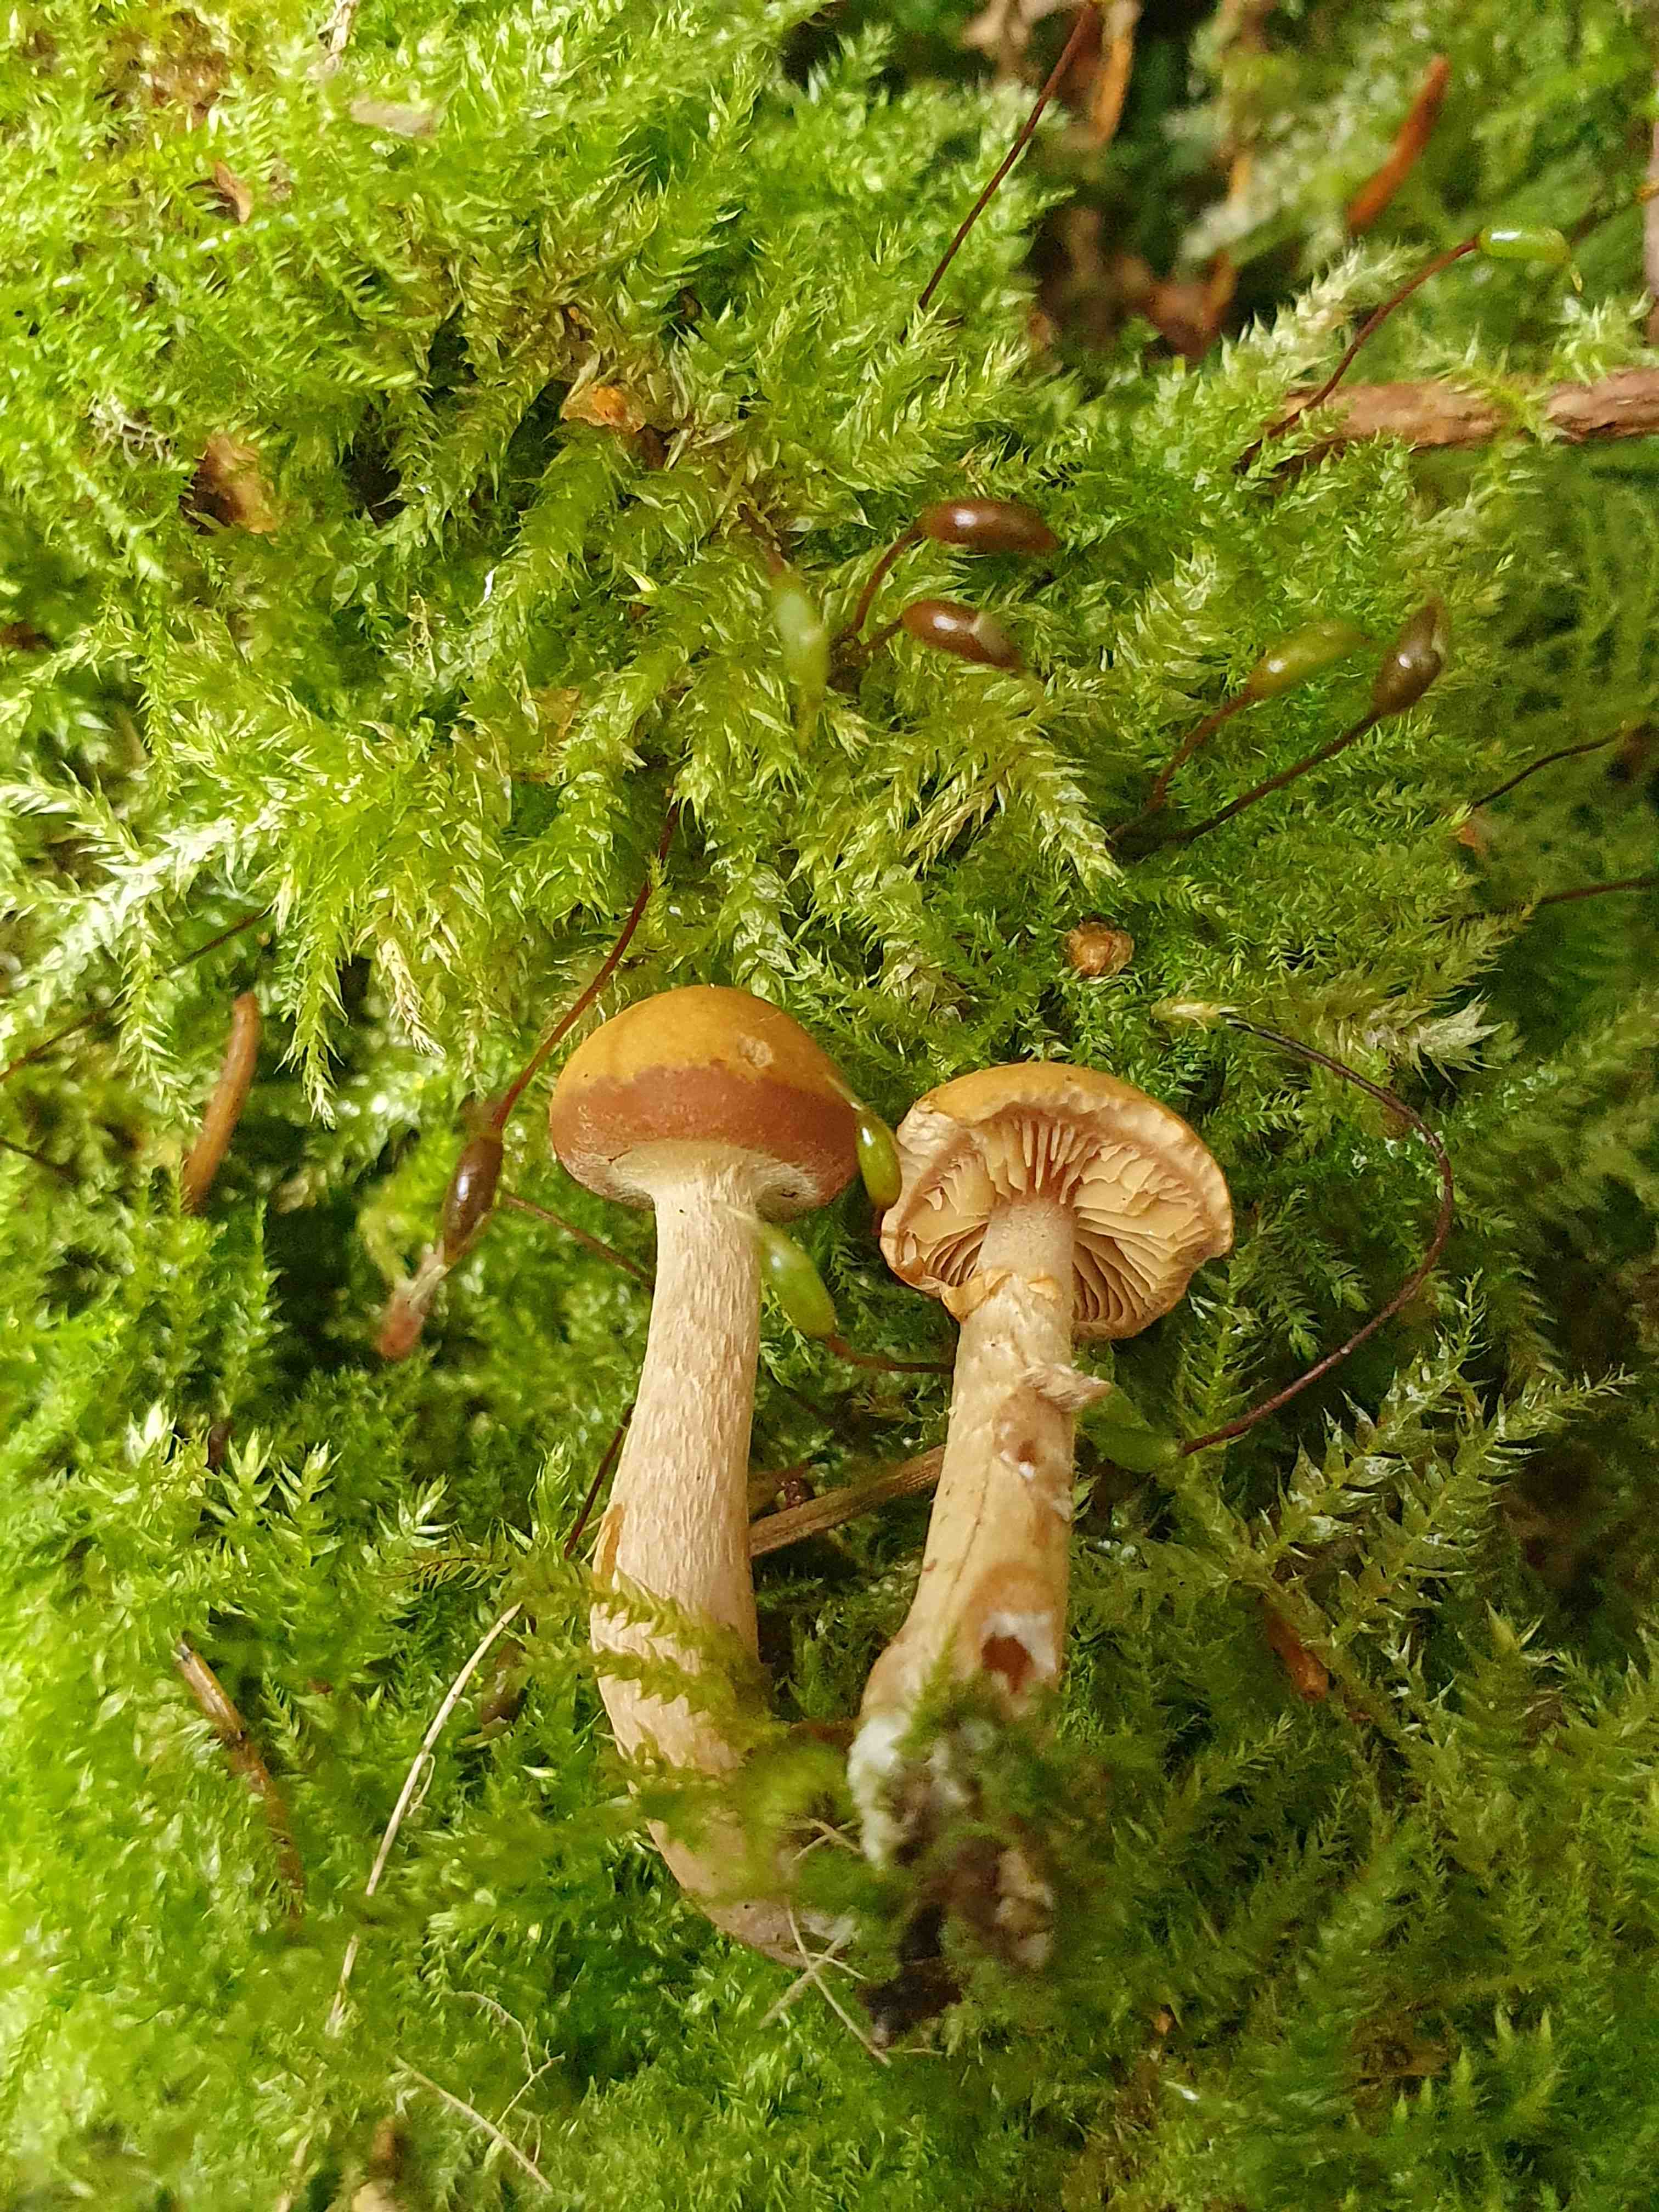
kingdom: Fungi
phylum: Basidiomycota
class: Agaricomycetes
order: Agaricales
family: Hymenogastraceae
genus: Galerina
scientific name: Galerina marginata
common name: randbæltet hjelmhat
